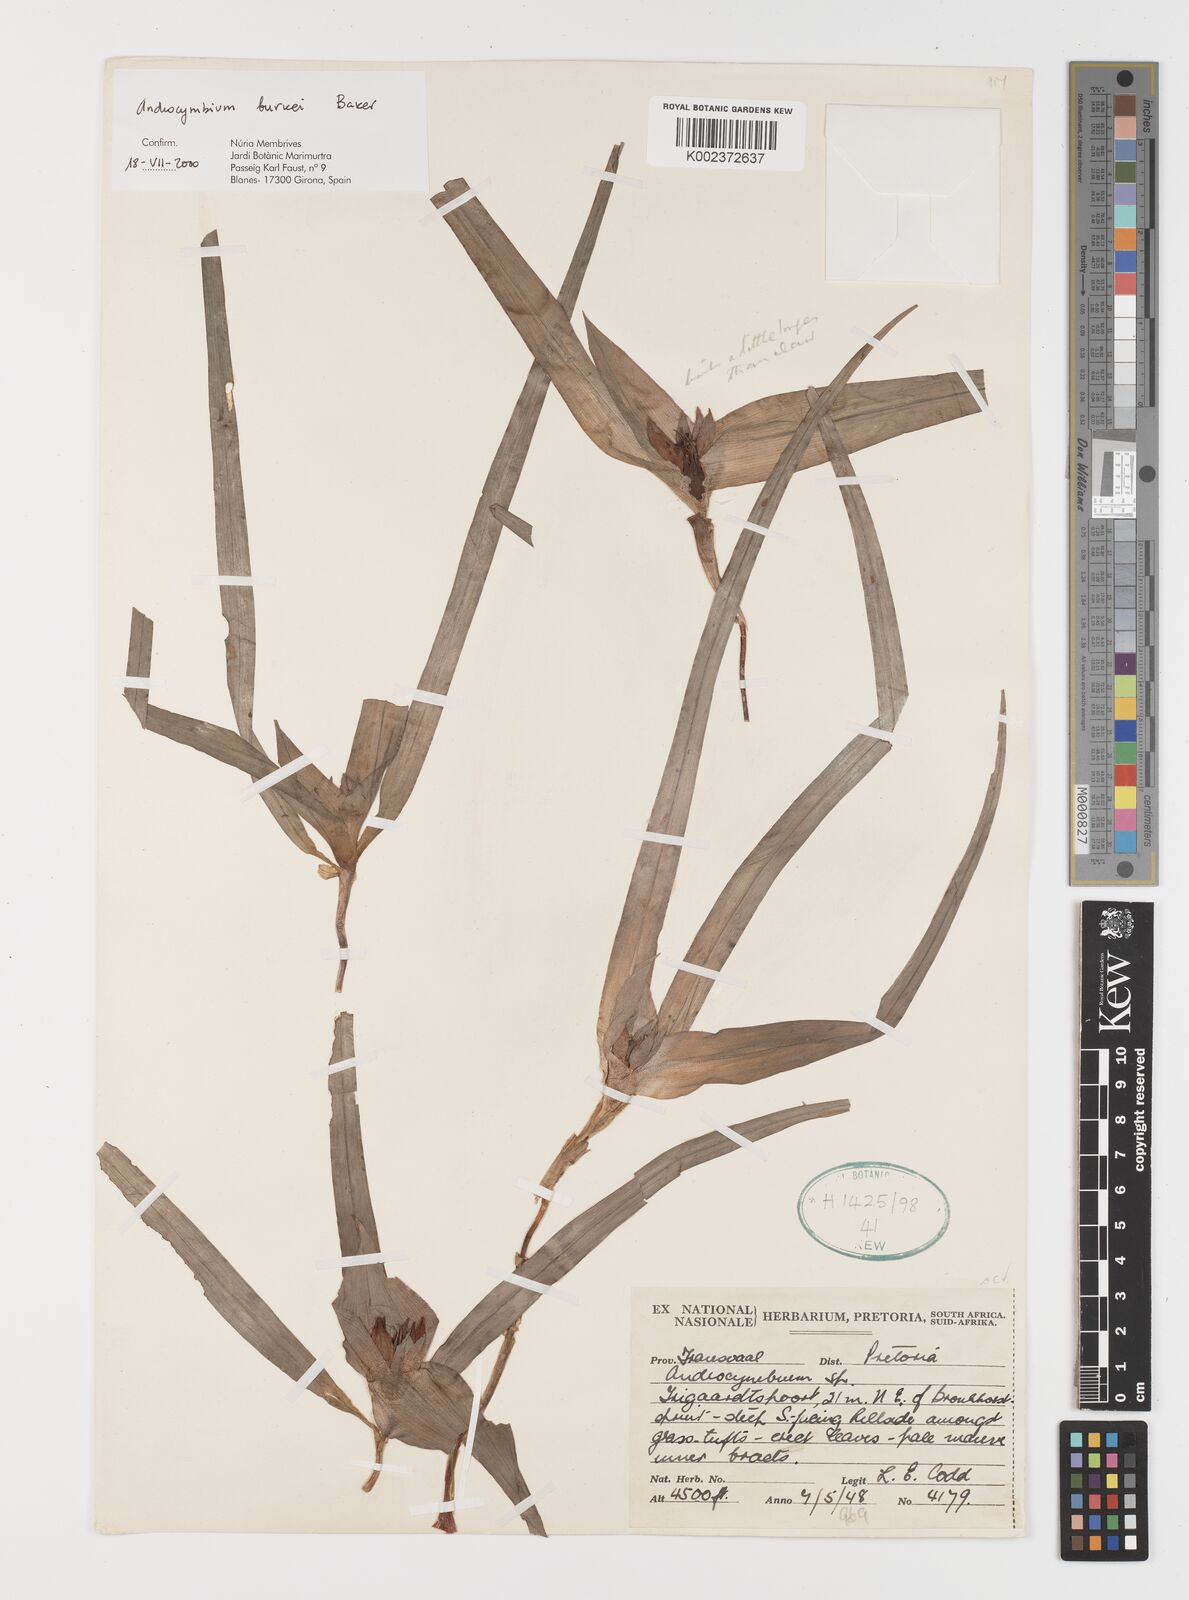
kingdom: Plantae
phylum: Tracheophyta
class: Liliopsida
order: Liliales
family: Colchicaceae
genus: Colchicum
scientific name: Colchicum burkei
